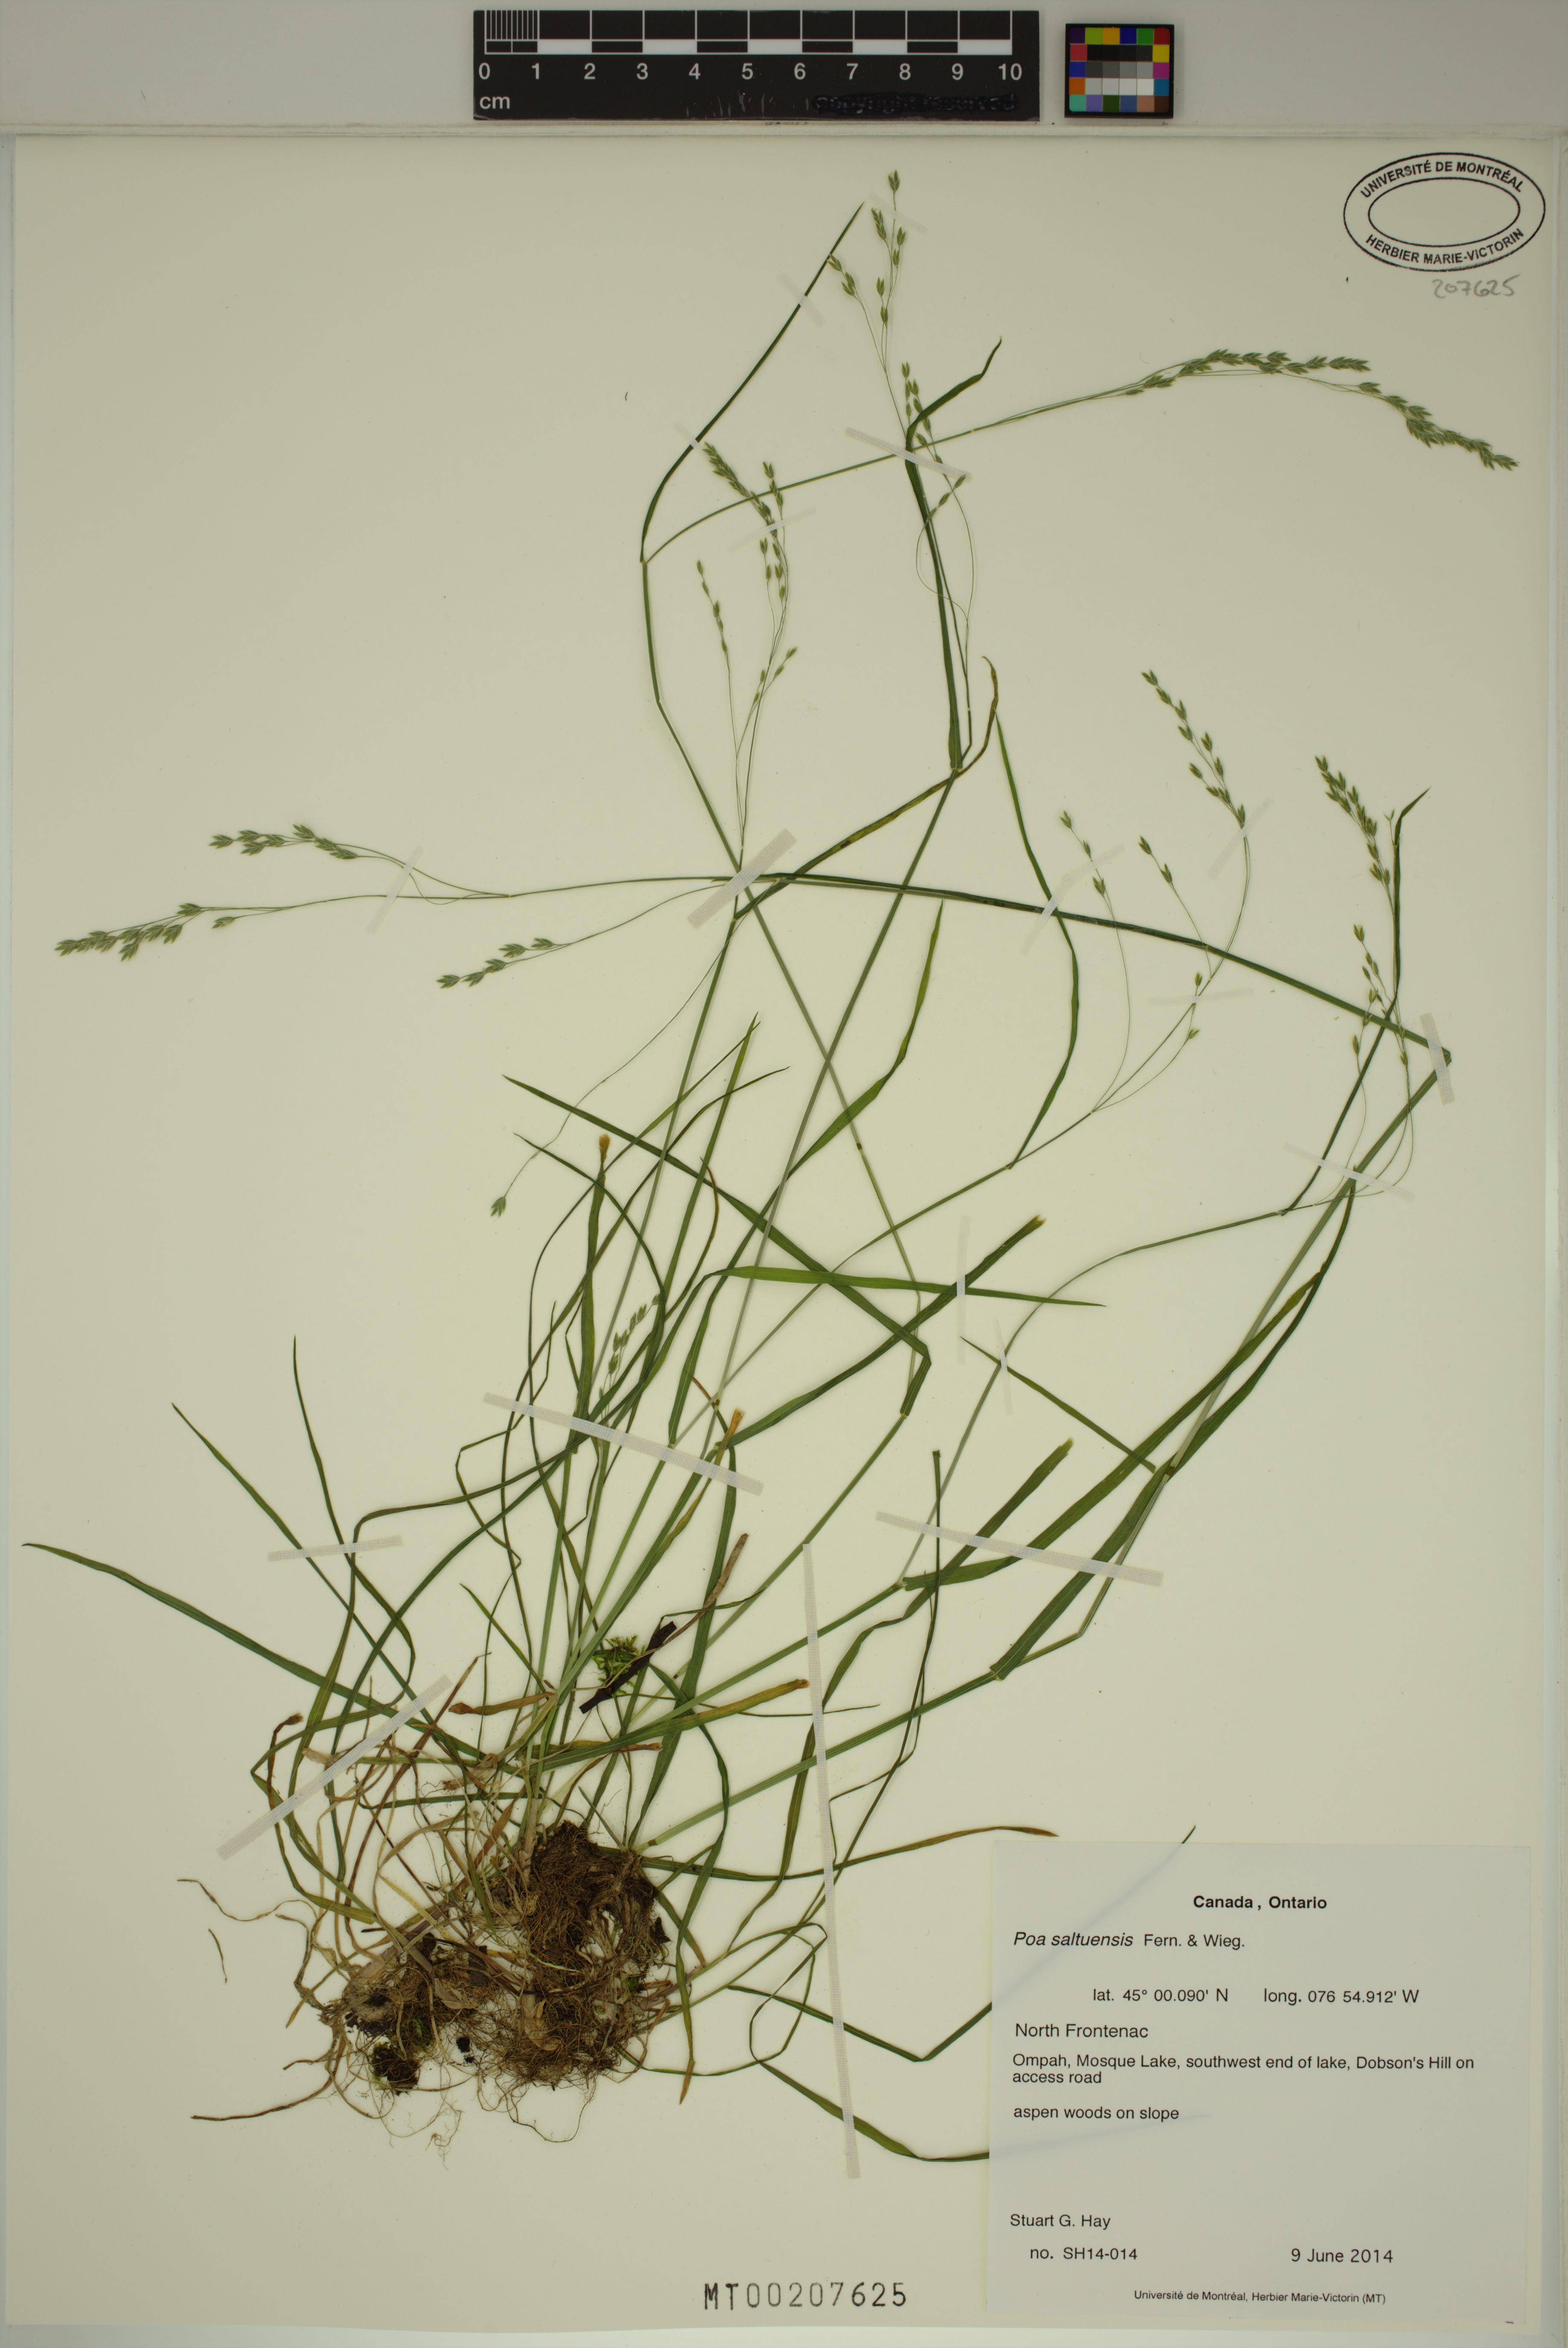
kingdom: Plantae
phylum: Tracheophyta
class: Liliopsida
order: Poales
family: Poaceae
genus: Poa
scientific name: Poa saltuensis
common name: Bushy pasture speargrass
